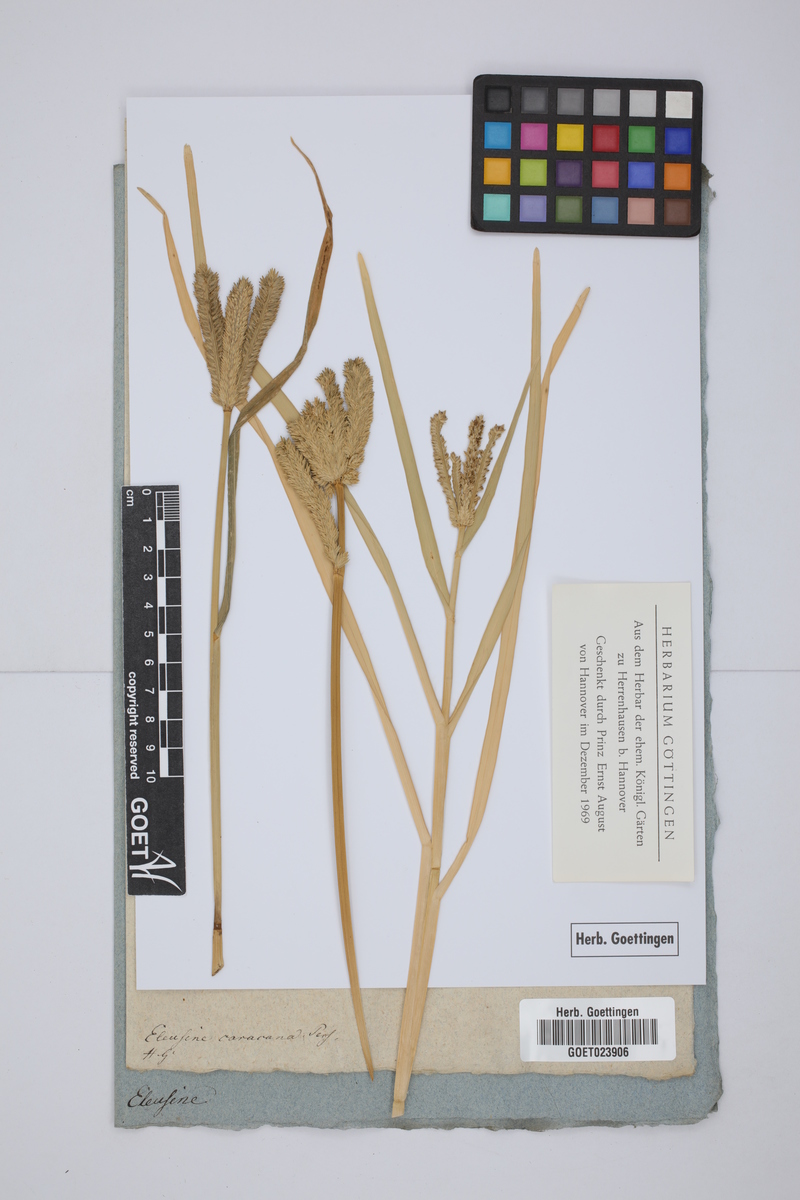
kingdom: Plantae
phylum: Tracheophyta
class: Liliopsida
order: Poales
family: Poaceae
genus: Eleusine
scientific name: Eleusine coracana
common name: Finger millet
